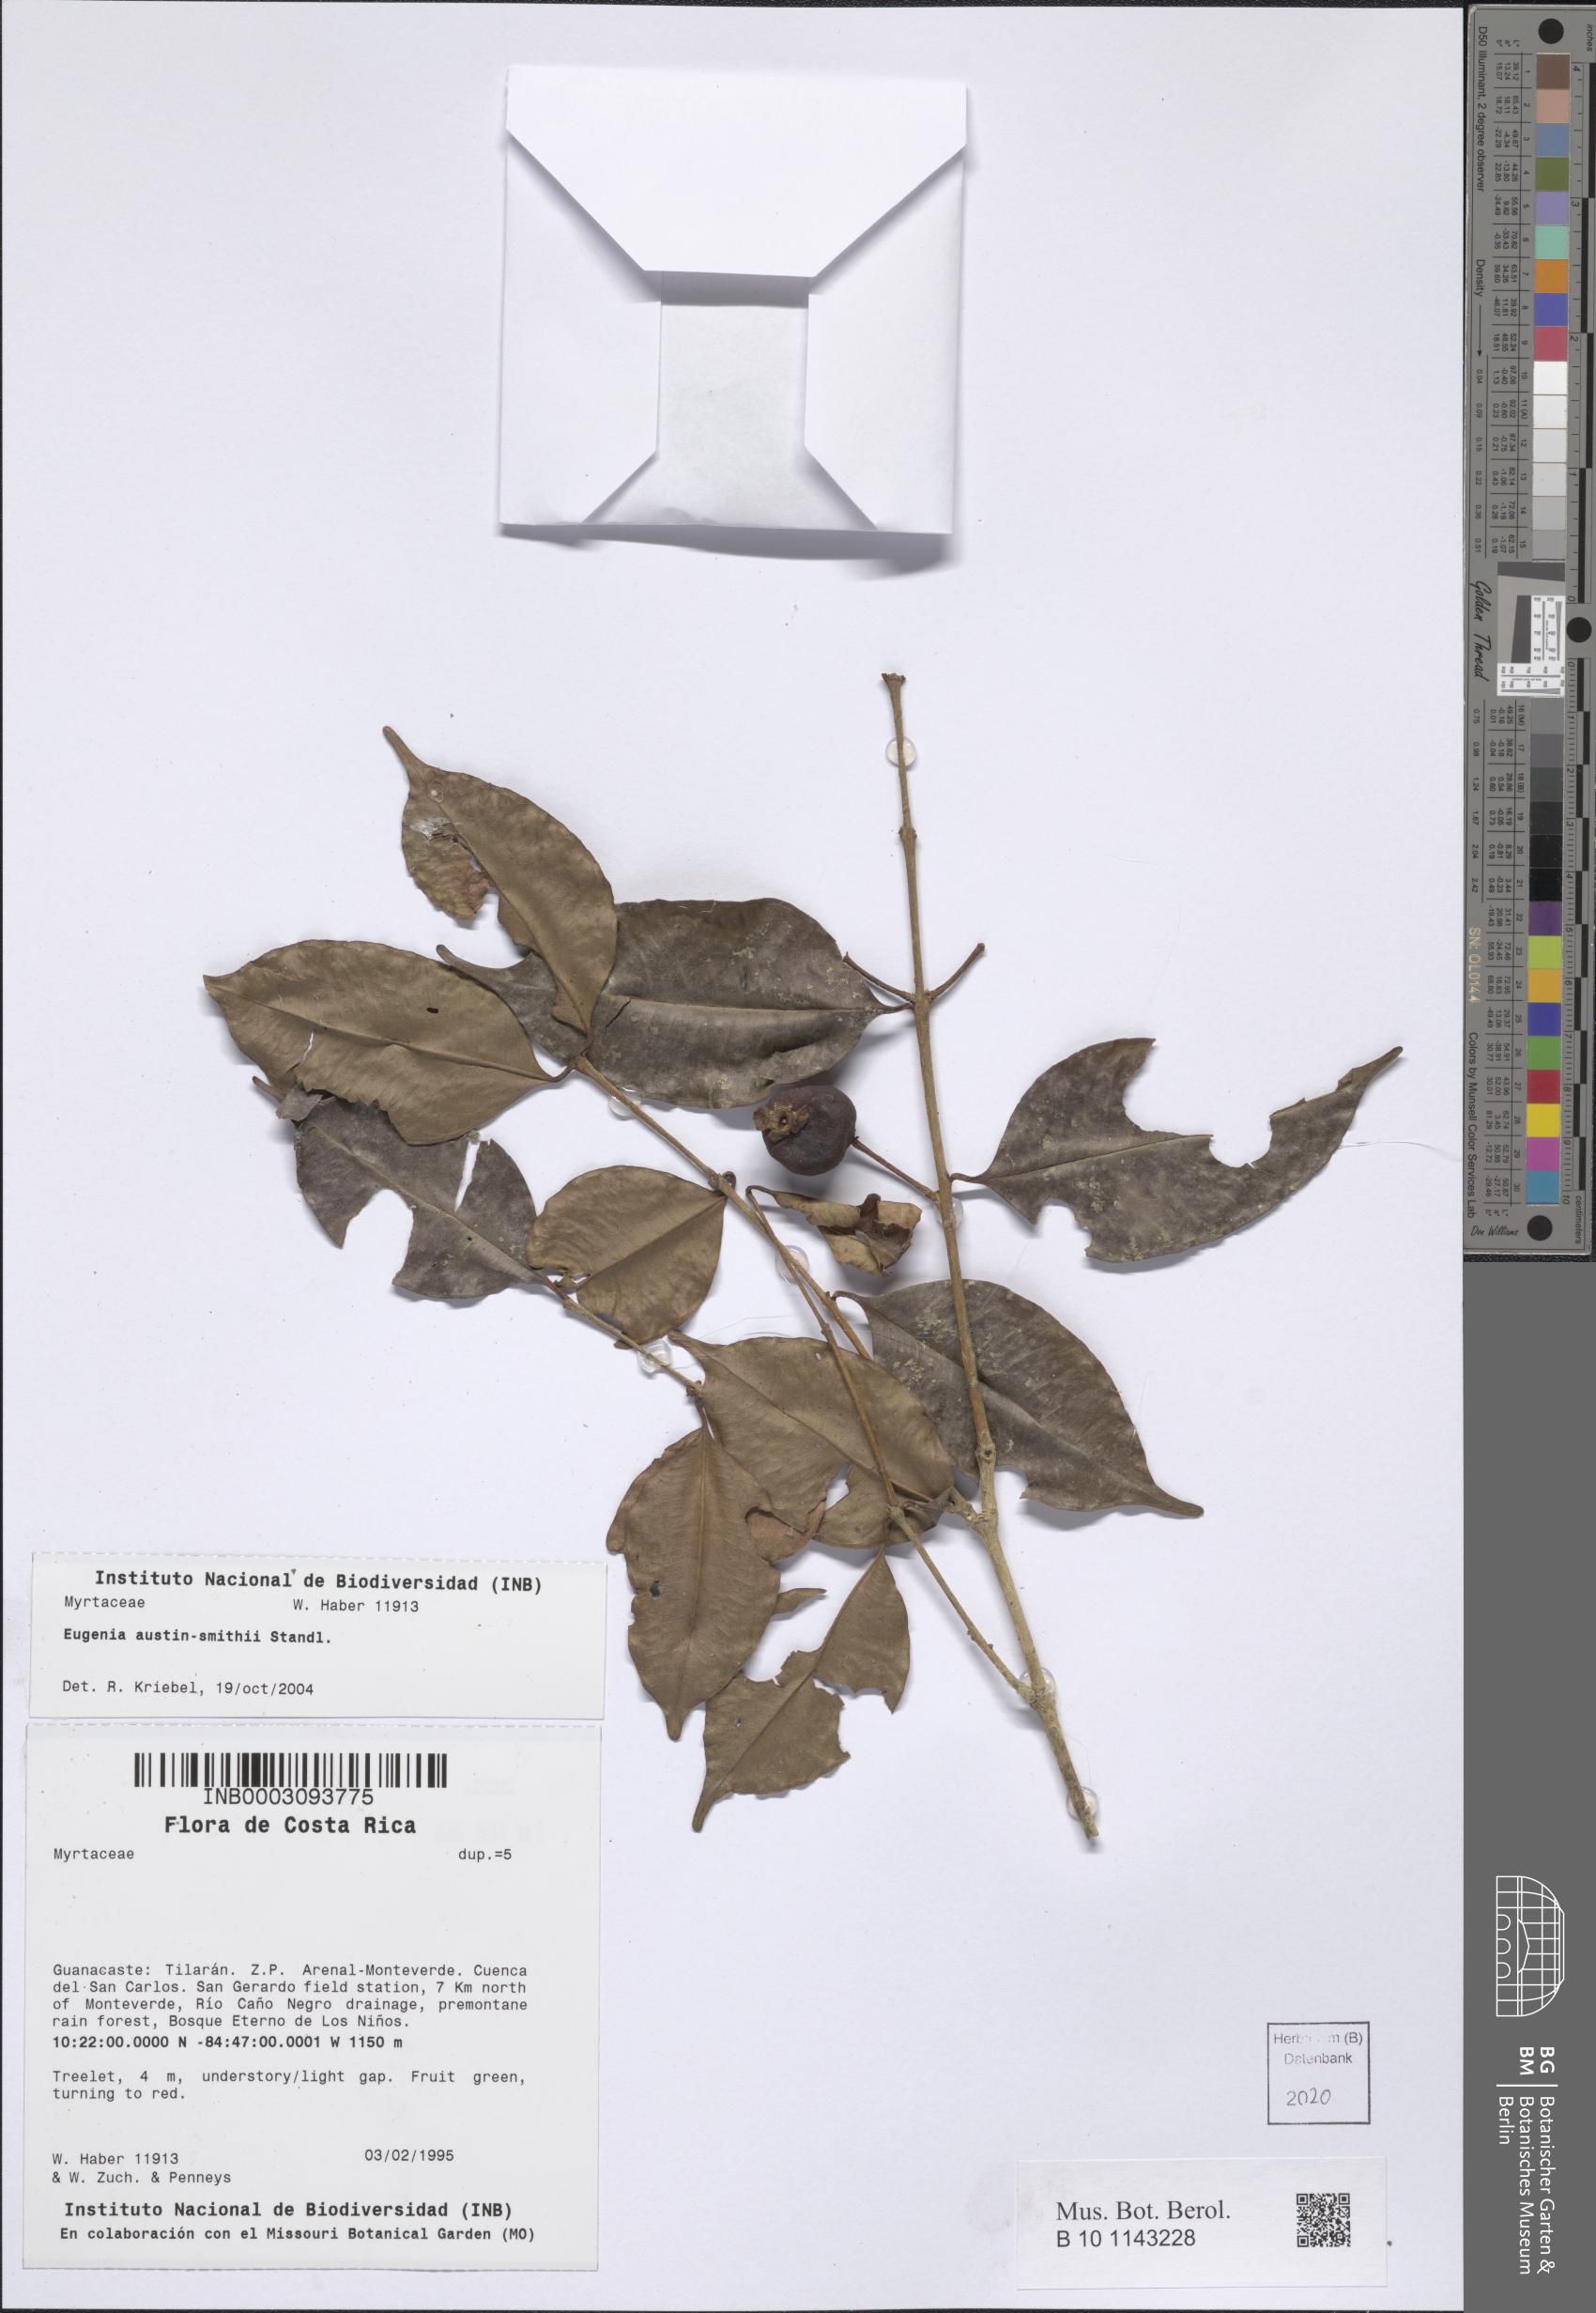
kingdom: Plantae
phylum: Tracheophyta
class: Magnoliopsida
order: Myrtales
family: Myrtaceae
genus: Eugenia
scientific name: Eugenia austin-smithii
